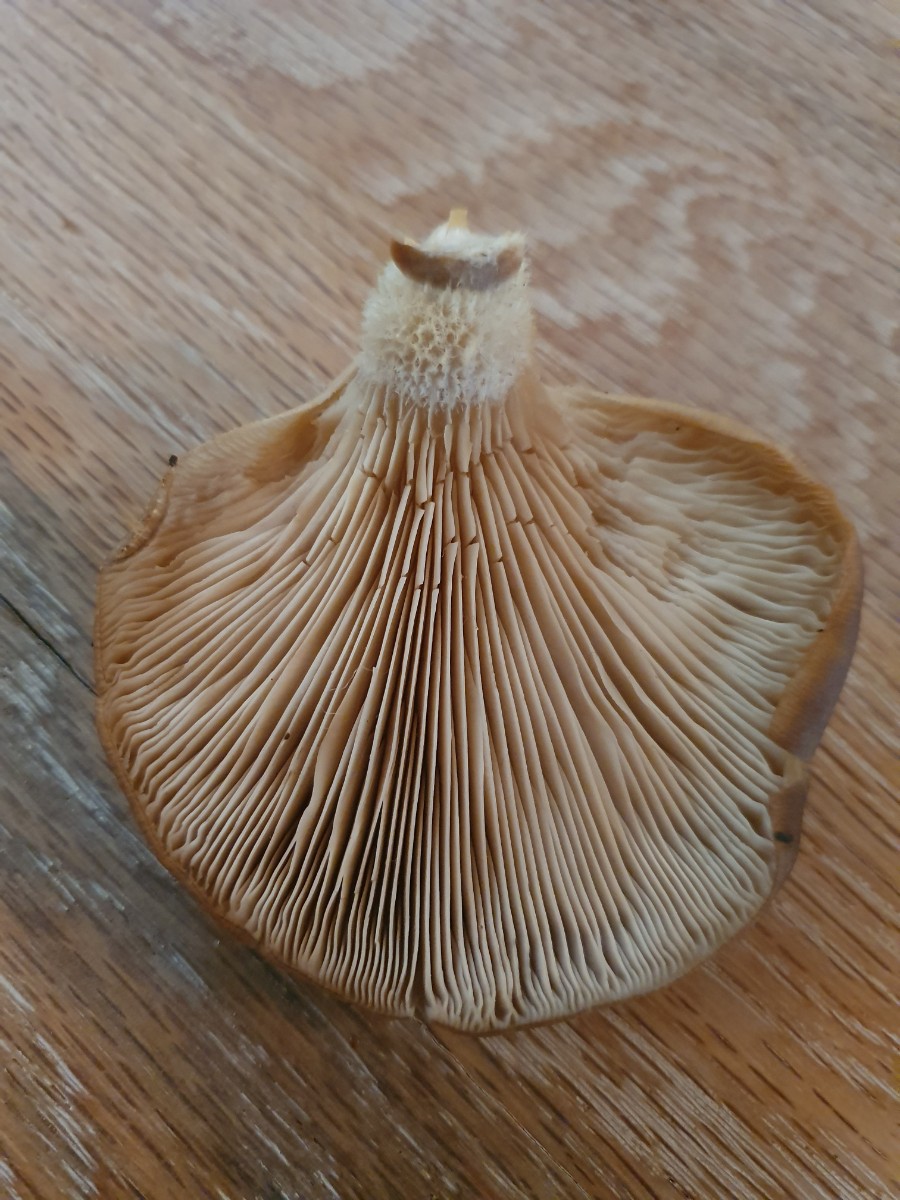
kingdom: Fungi
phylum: Basidiomycota
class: Agaricomycetes
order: Agaricales
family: Pleurotaceae
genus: Pleurotus
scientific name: Pleurotus ostreatus
